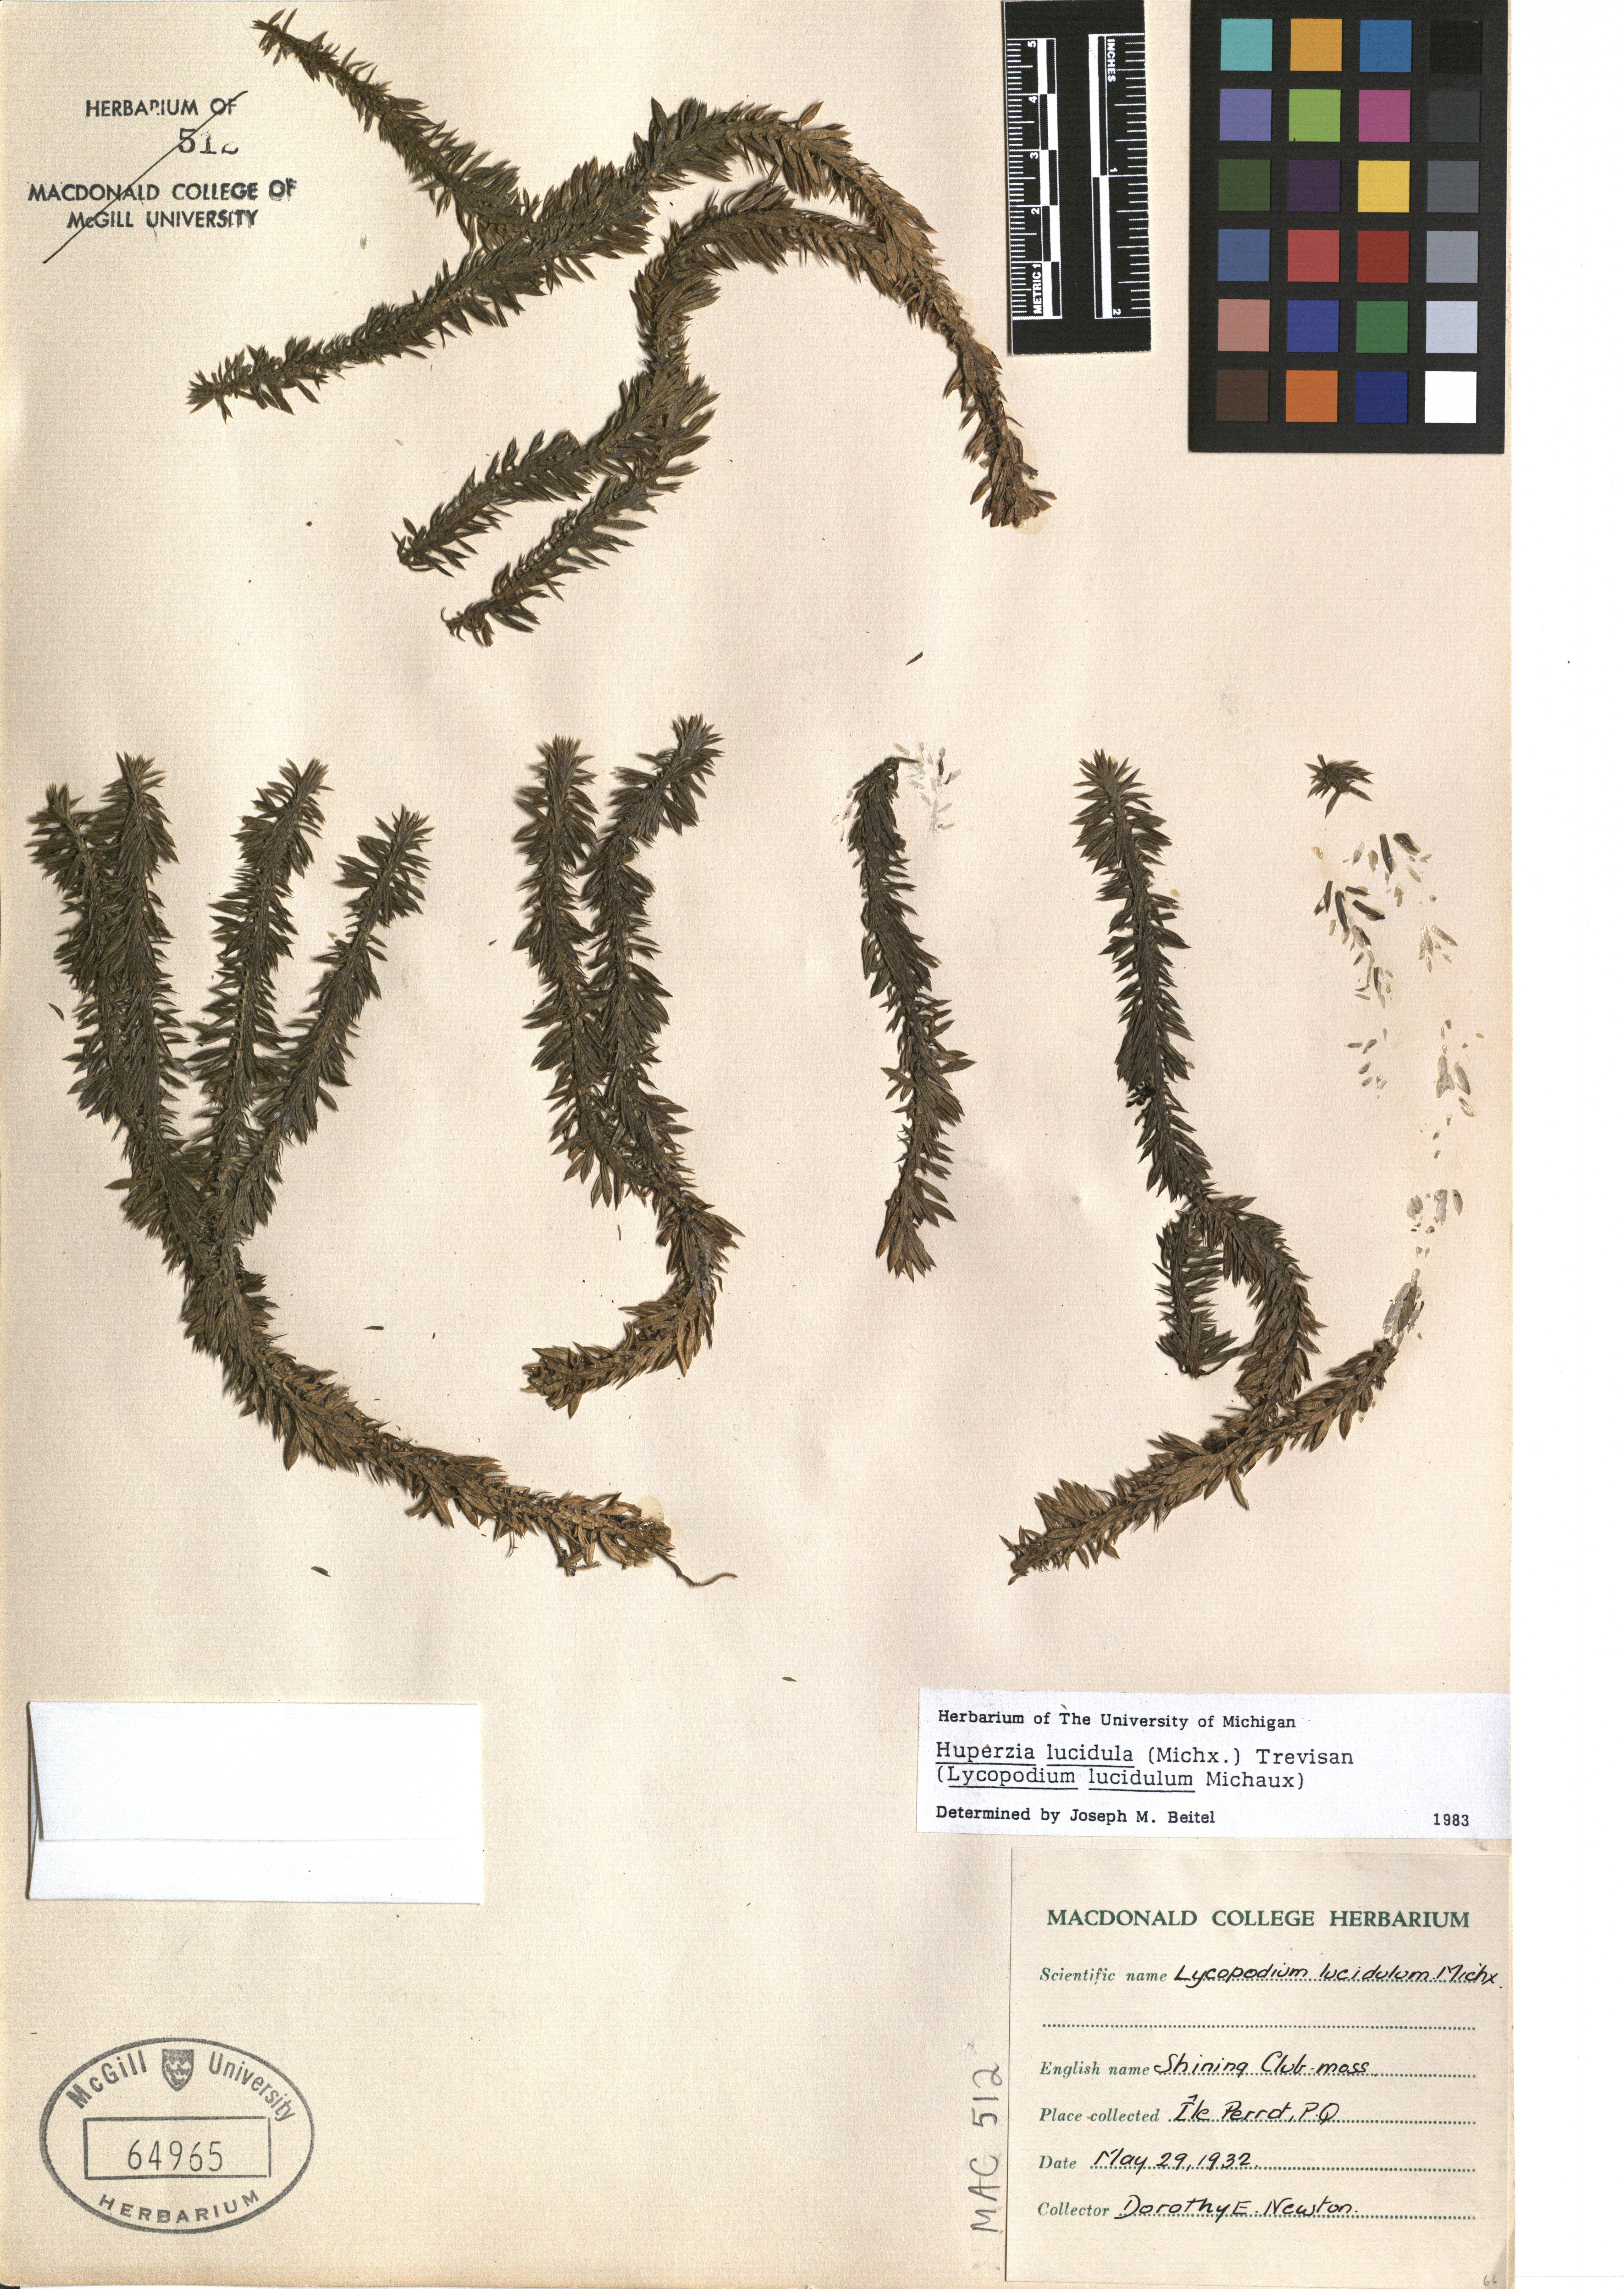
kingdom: Plantae
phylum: Tracheophyta
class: Lycopodiopsida
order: Lycopodiales
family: Lycopodiaceae
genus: Huperzia
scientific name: Huperzia lucidula
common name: Shining clubmoss
